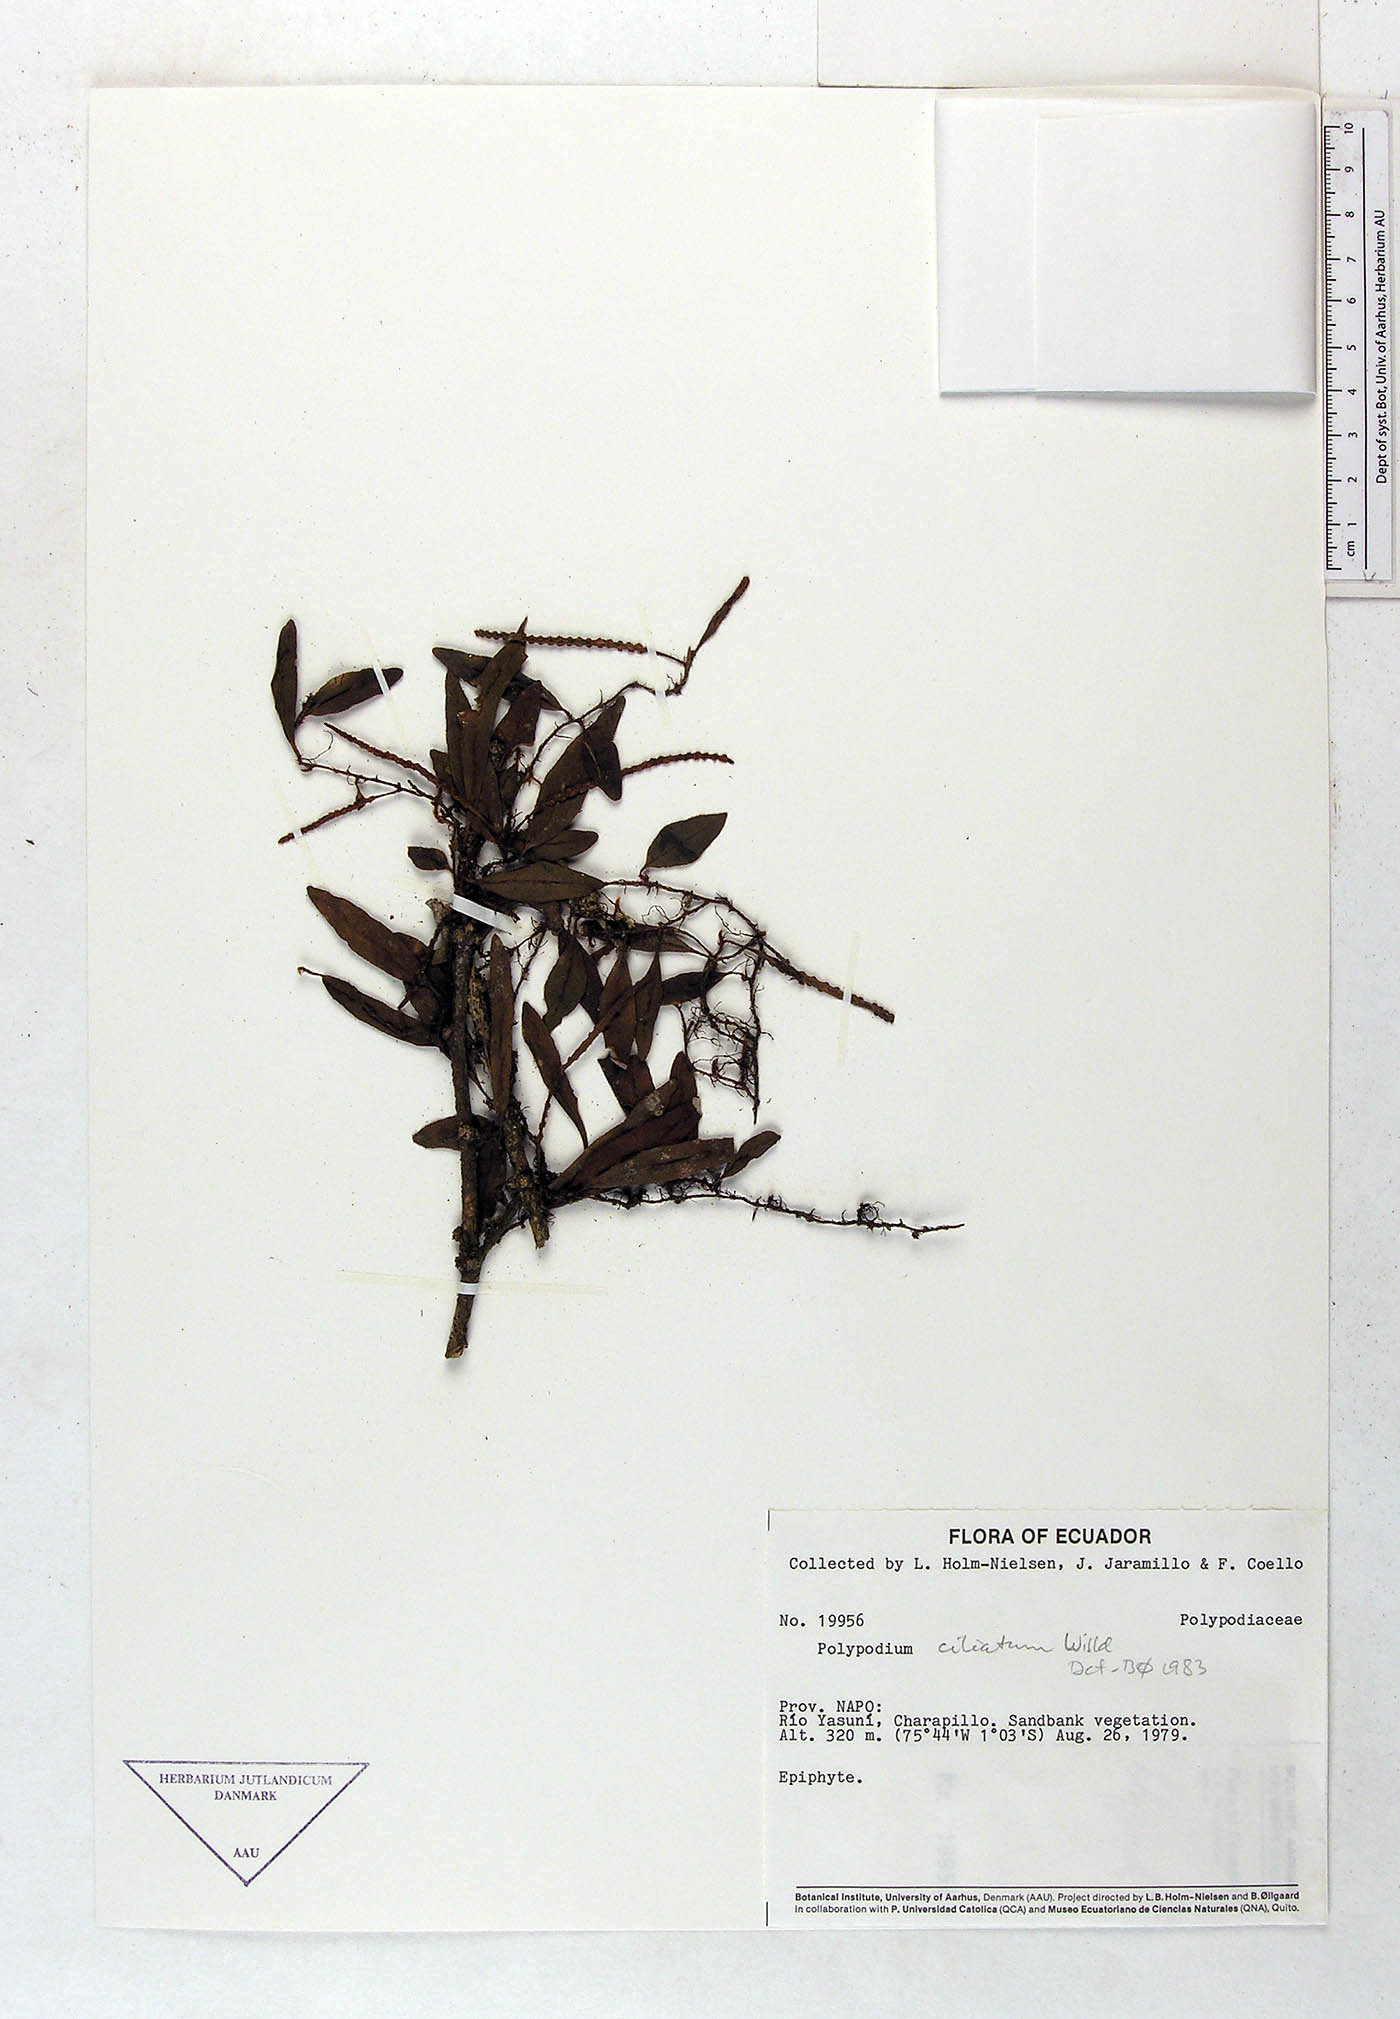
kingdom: Plantae
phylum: Tracheophyta
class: Polypodiopsida
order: Polypodiales
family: Polypodiaceae
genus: Microgramma
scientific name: Microgramma piloselloides
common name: Hairy snakefern
